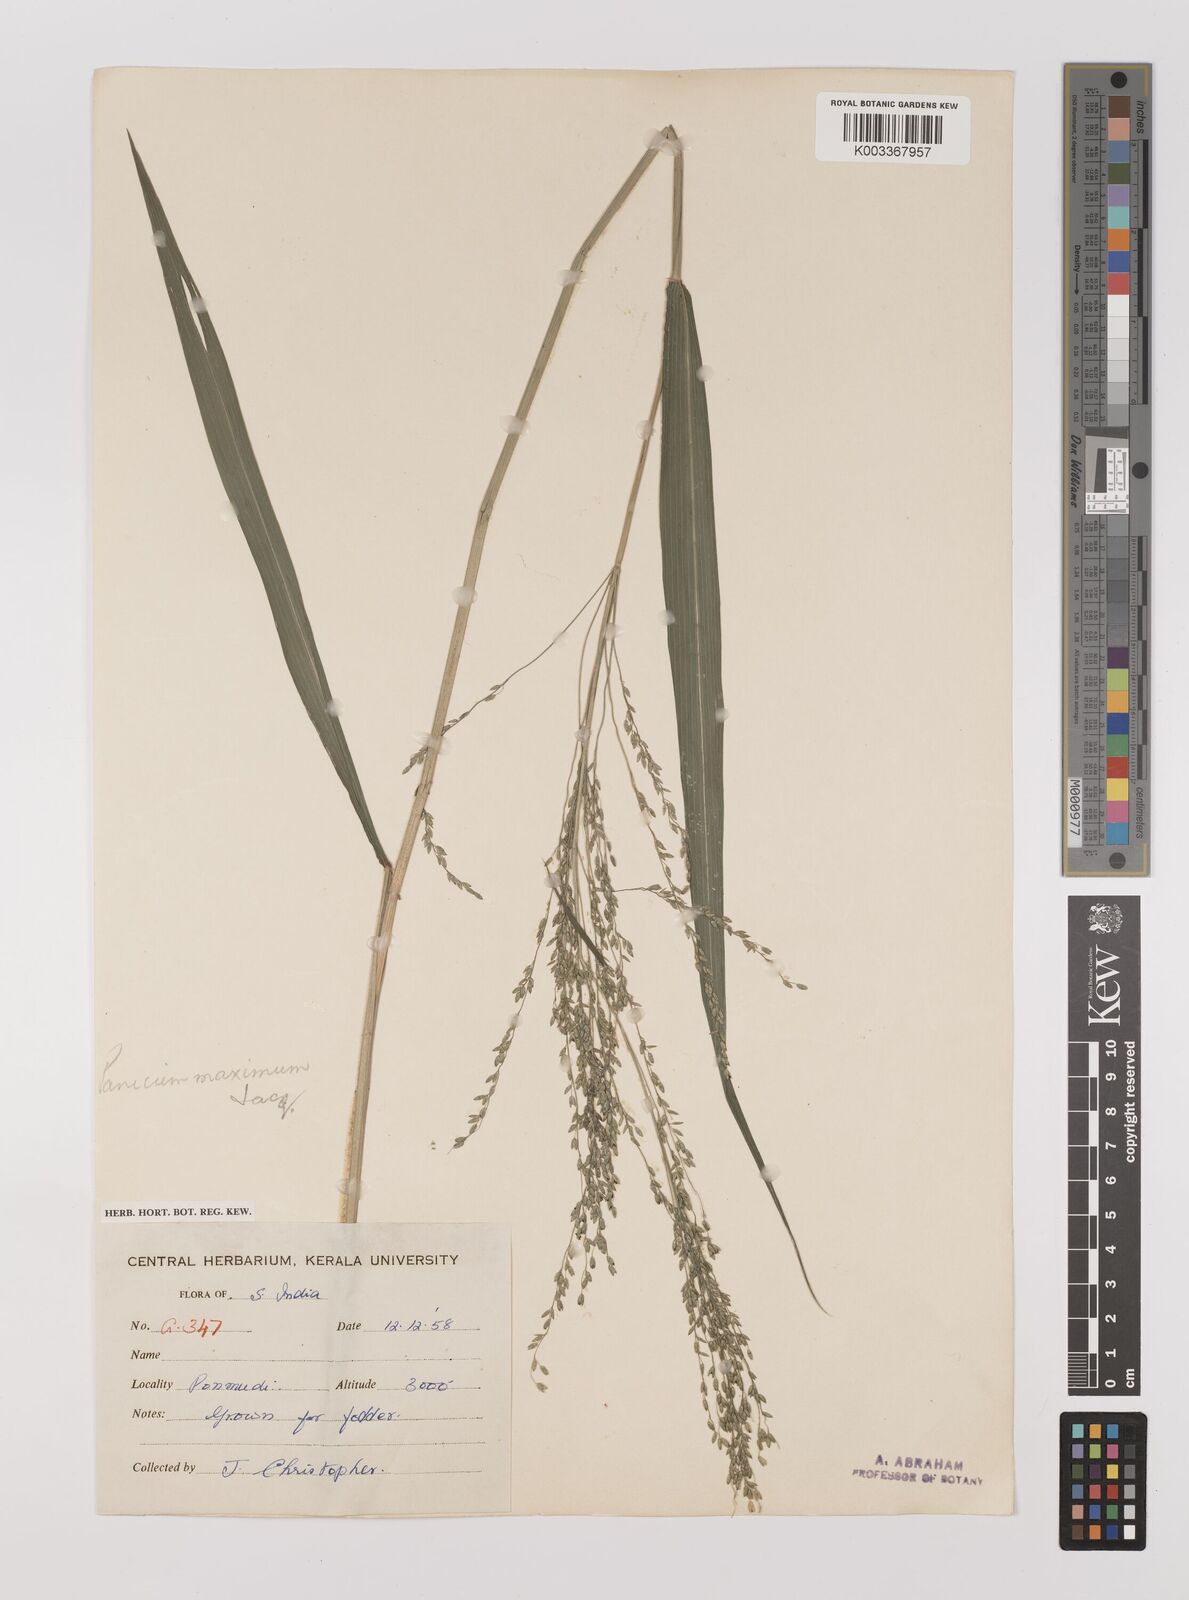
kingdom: Plantae
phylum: Tracheophyta
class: Liliopsida
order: Poales
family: Poaceae
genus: Megathyrsus
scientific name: Megathyrsus maximus
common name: Guineagrass
